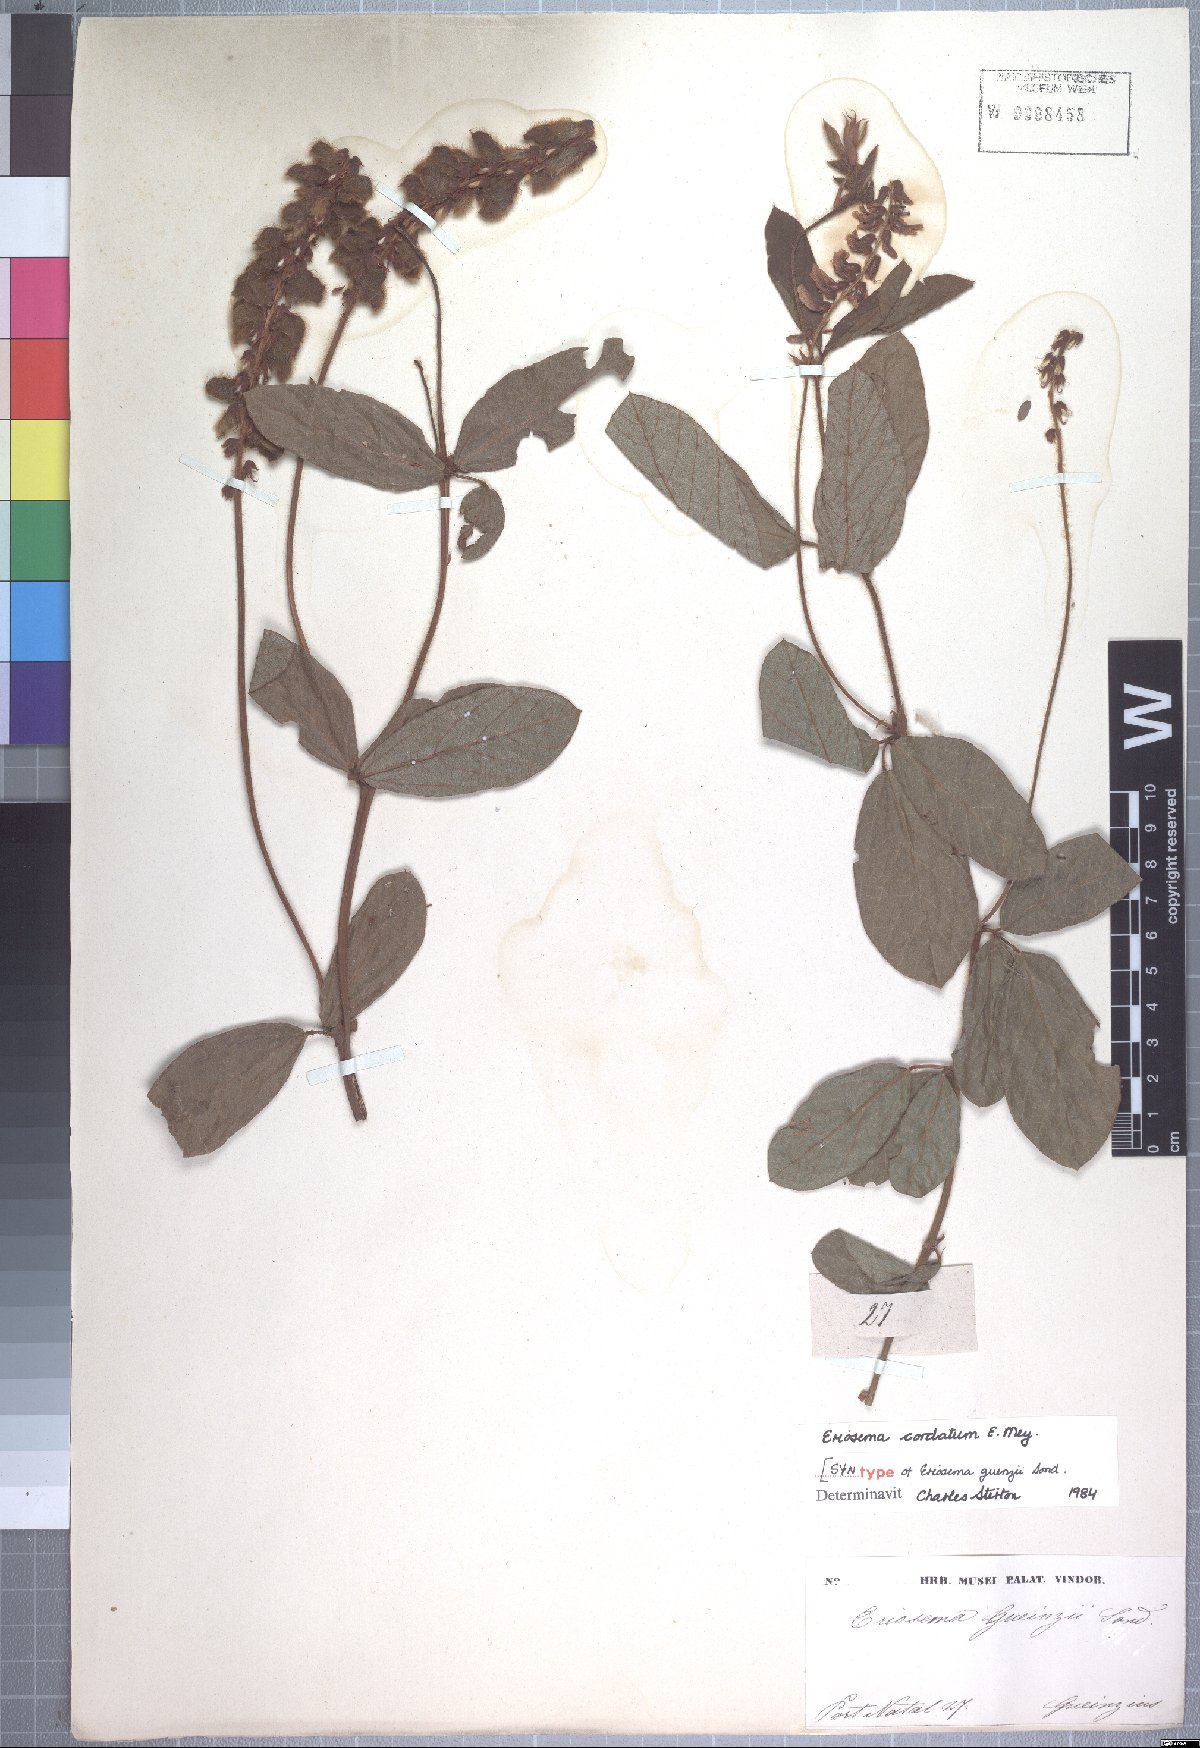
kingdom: Plantae
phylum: Tracheophyta
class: Magnoliopsida
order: Fabales
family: Fabaceae
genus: Eriosema
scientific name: Eriosema cordatum
